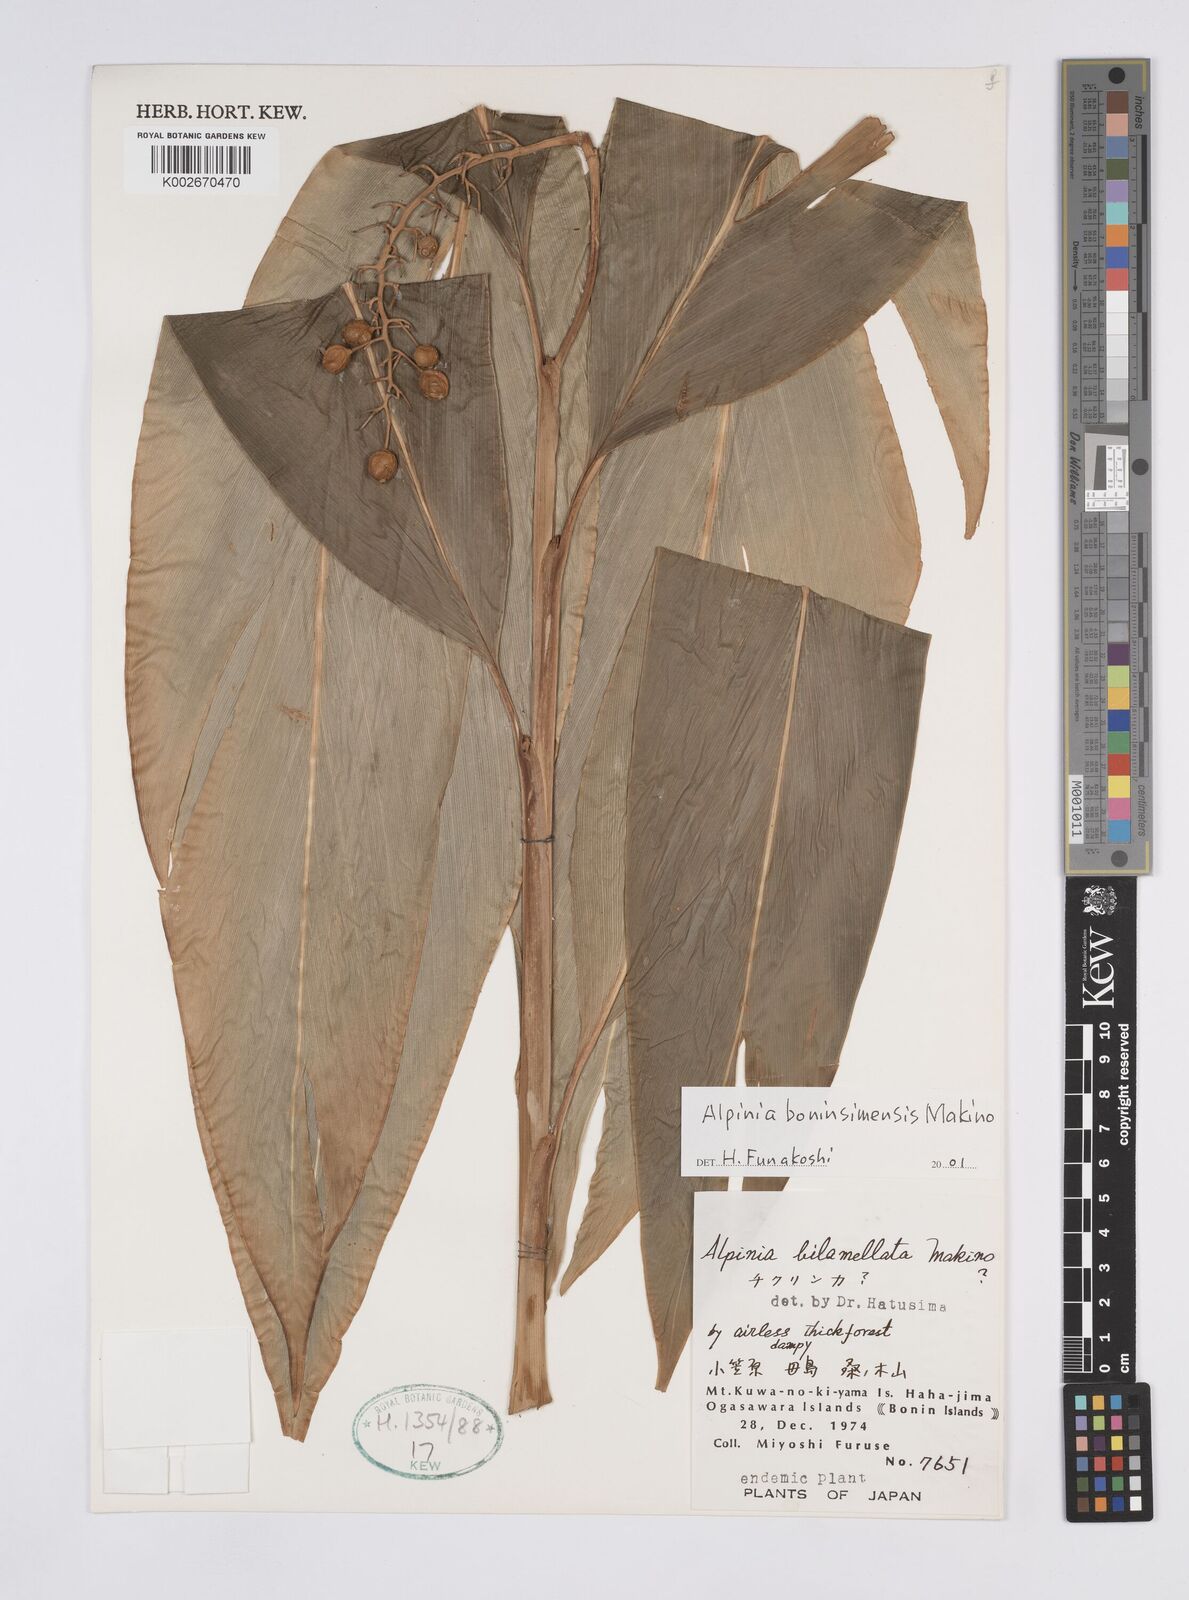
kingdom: Plantae
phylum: Tracheophyta
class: Liliopsida
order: Zingiberales
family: Zingiberaceae
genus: Alpinia
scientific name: Alpinia boninsimensis
